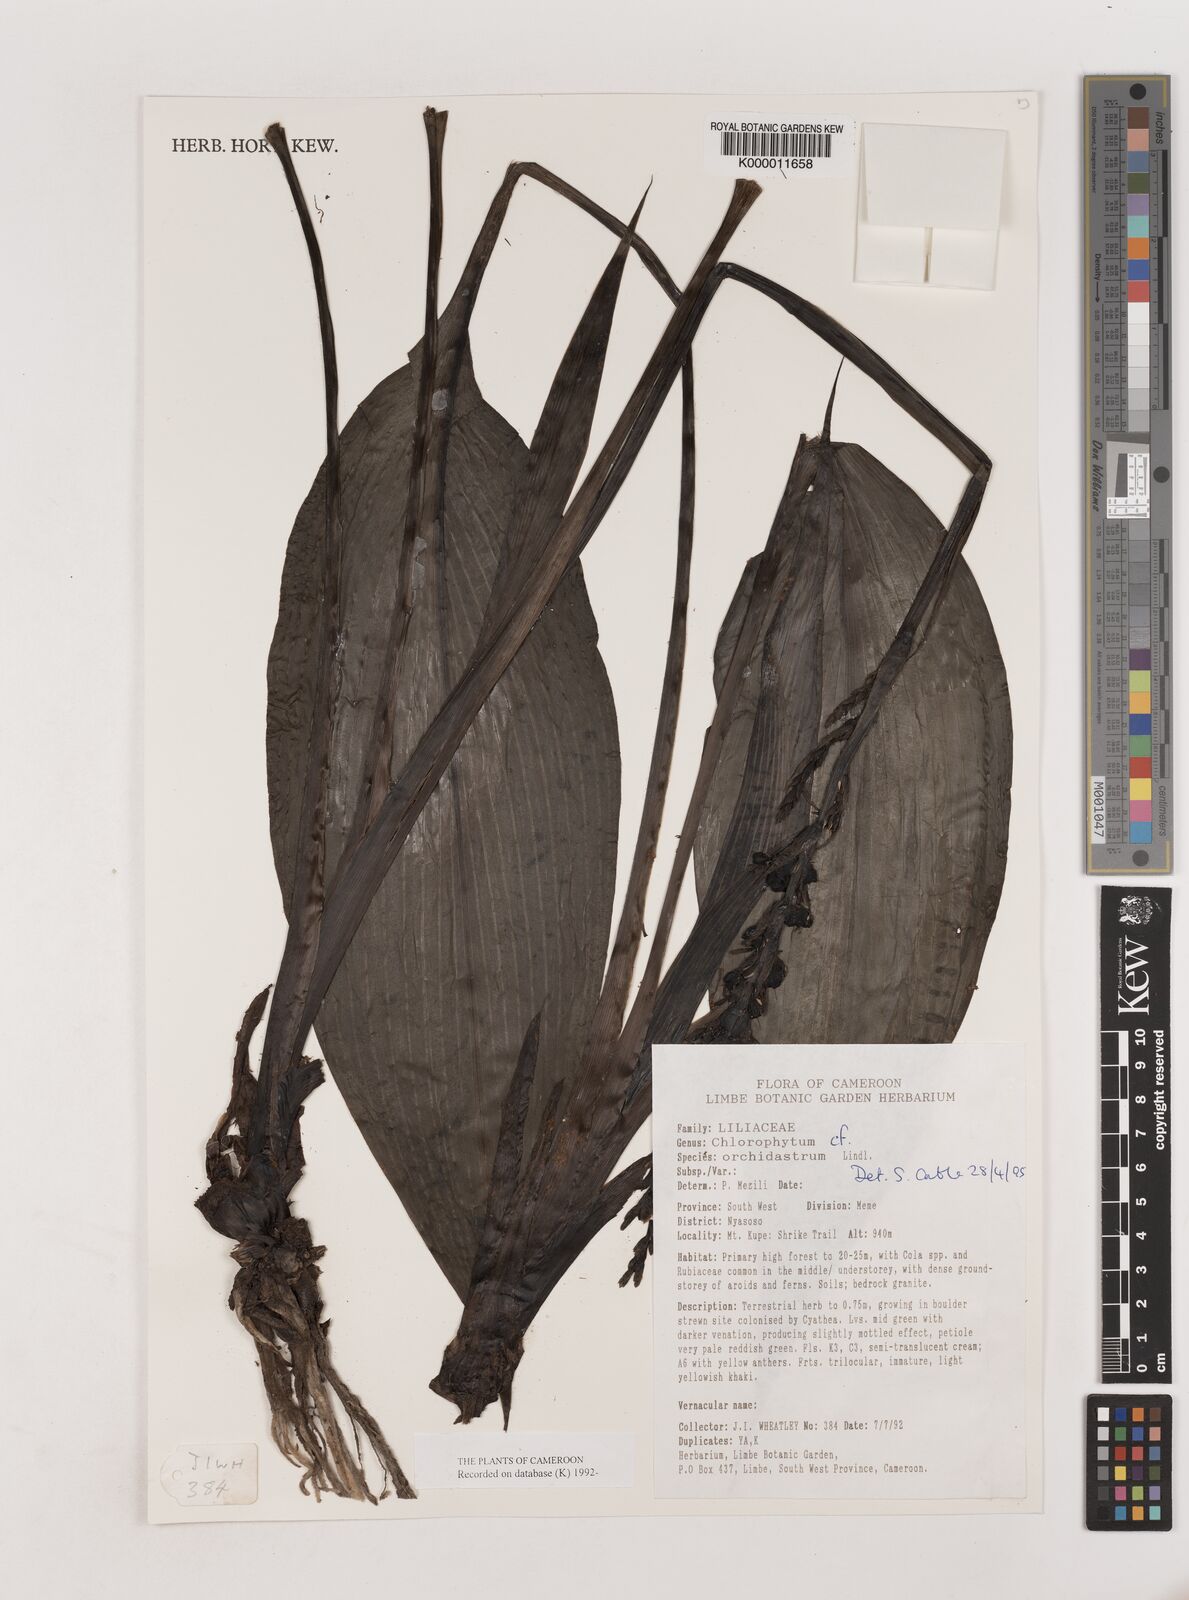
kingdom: Plantae
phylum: Tracheophyta
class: Liliopsida
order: Asparagales
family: Asparagaceae
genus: Chlorophytum
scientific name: Chlorophytum orchidastrum
